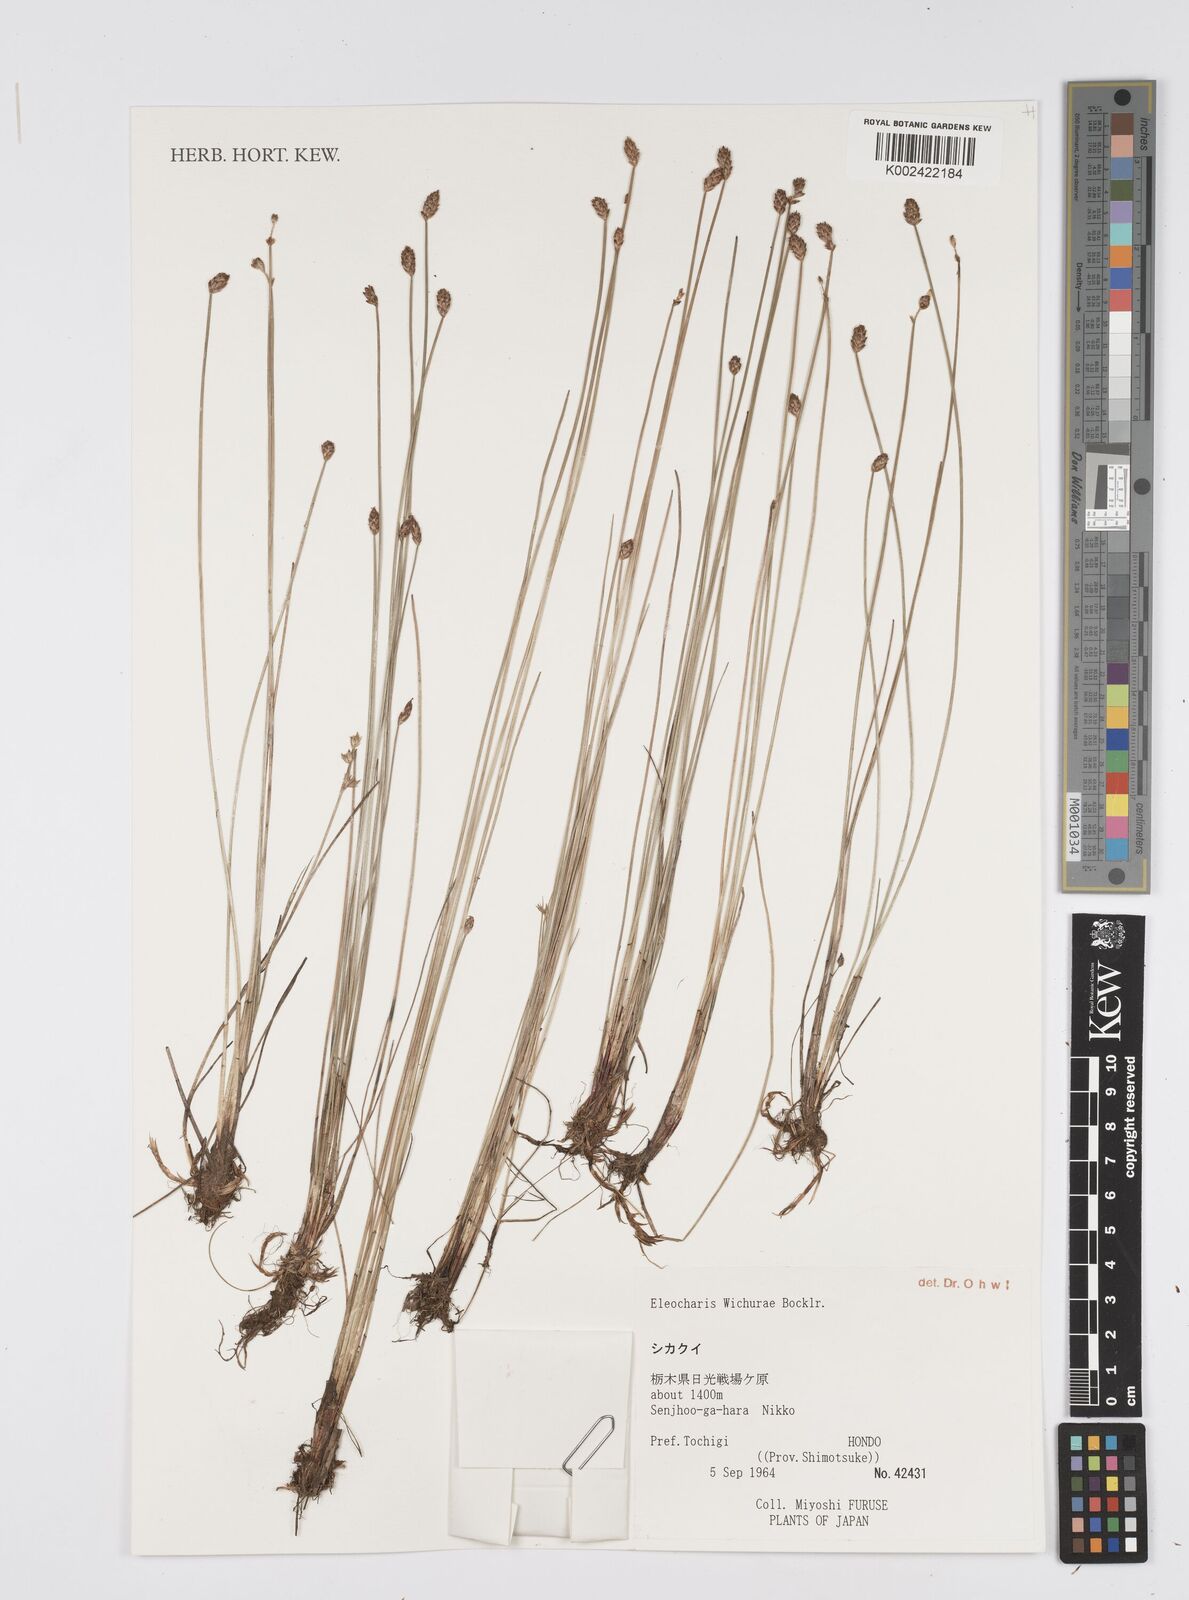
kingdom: Plantae
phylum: Tracheophyta
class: Liliopsida
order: Poales
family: Cyperaceae
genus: Eleocharis
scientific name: Eleocharis tetraquetra
